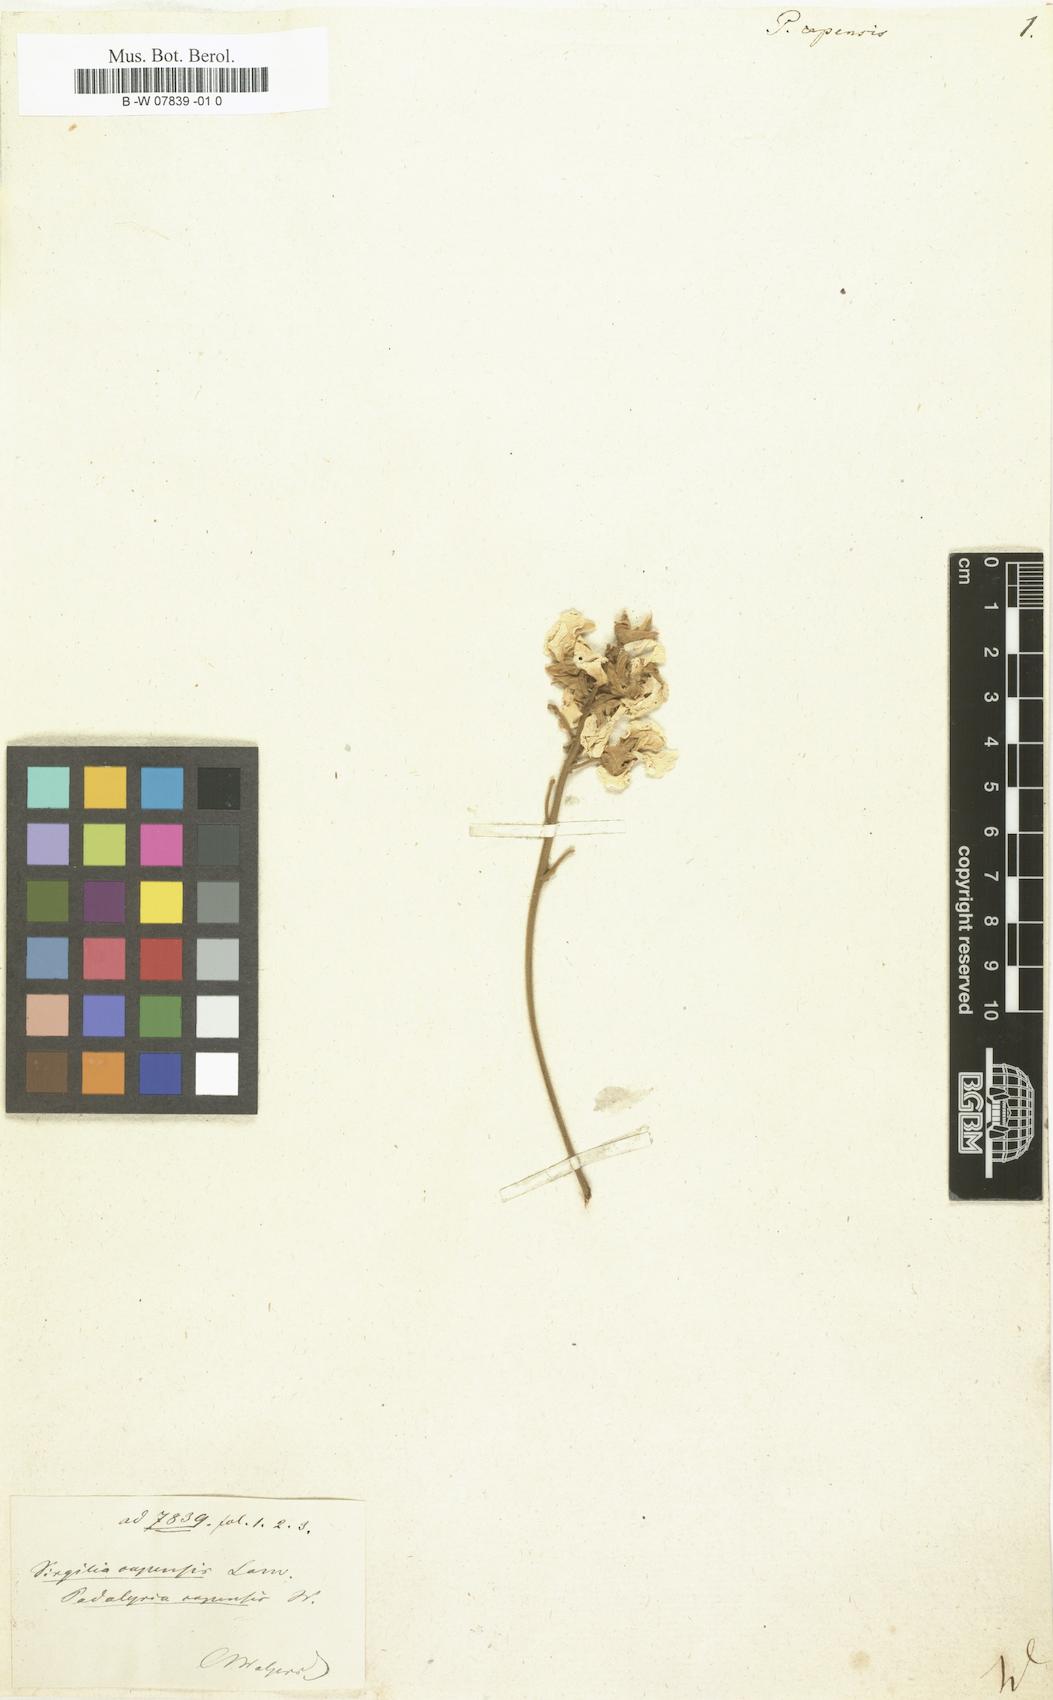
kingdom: Plantae
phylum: Tracheophyta
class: Magnoliopsida
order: Fabales
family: Fabaceae
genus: Virgilia
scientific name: Virgilia oroboides
